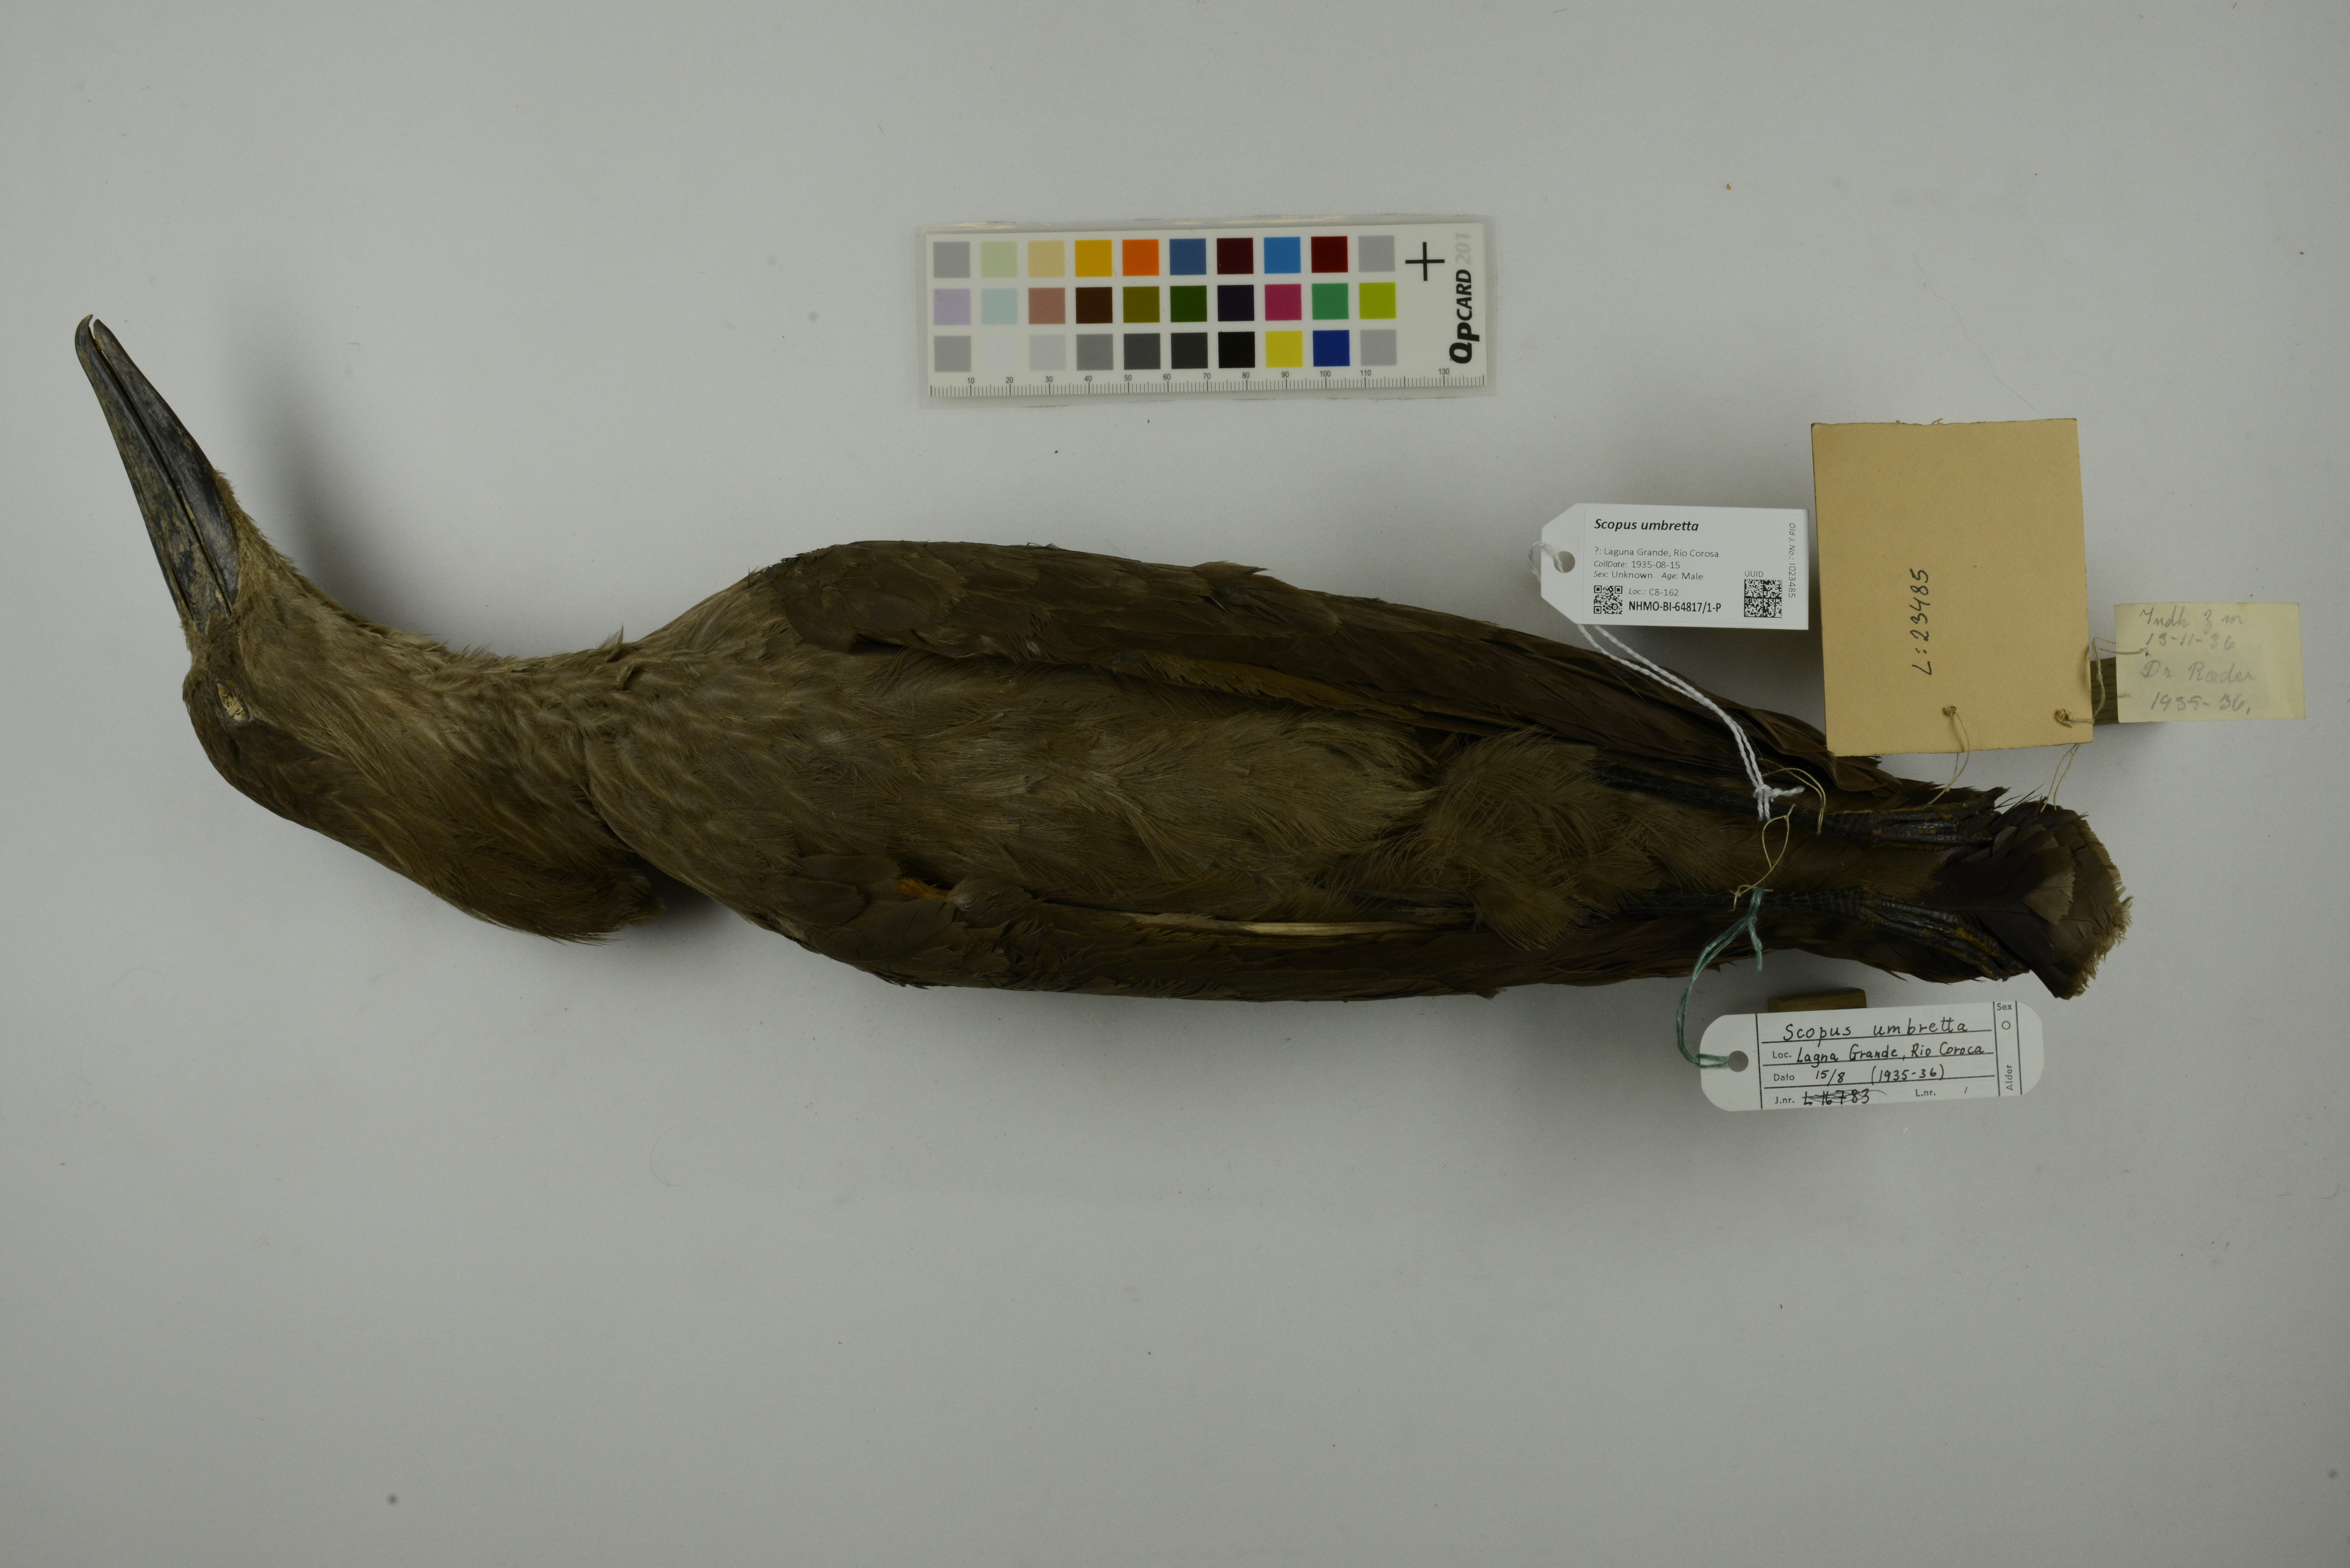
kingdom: Animalia
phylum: Chordata
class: Aves
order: Pelecaniformes
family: Scopidae
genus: Scopus
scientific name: Scopus umbretta
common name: Hamerkop
